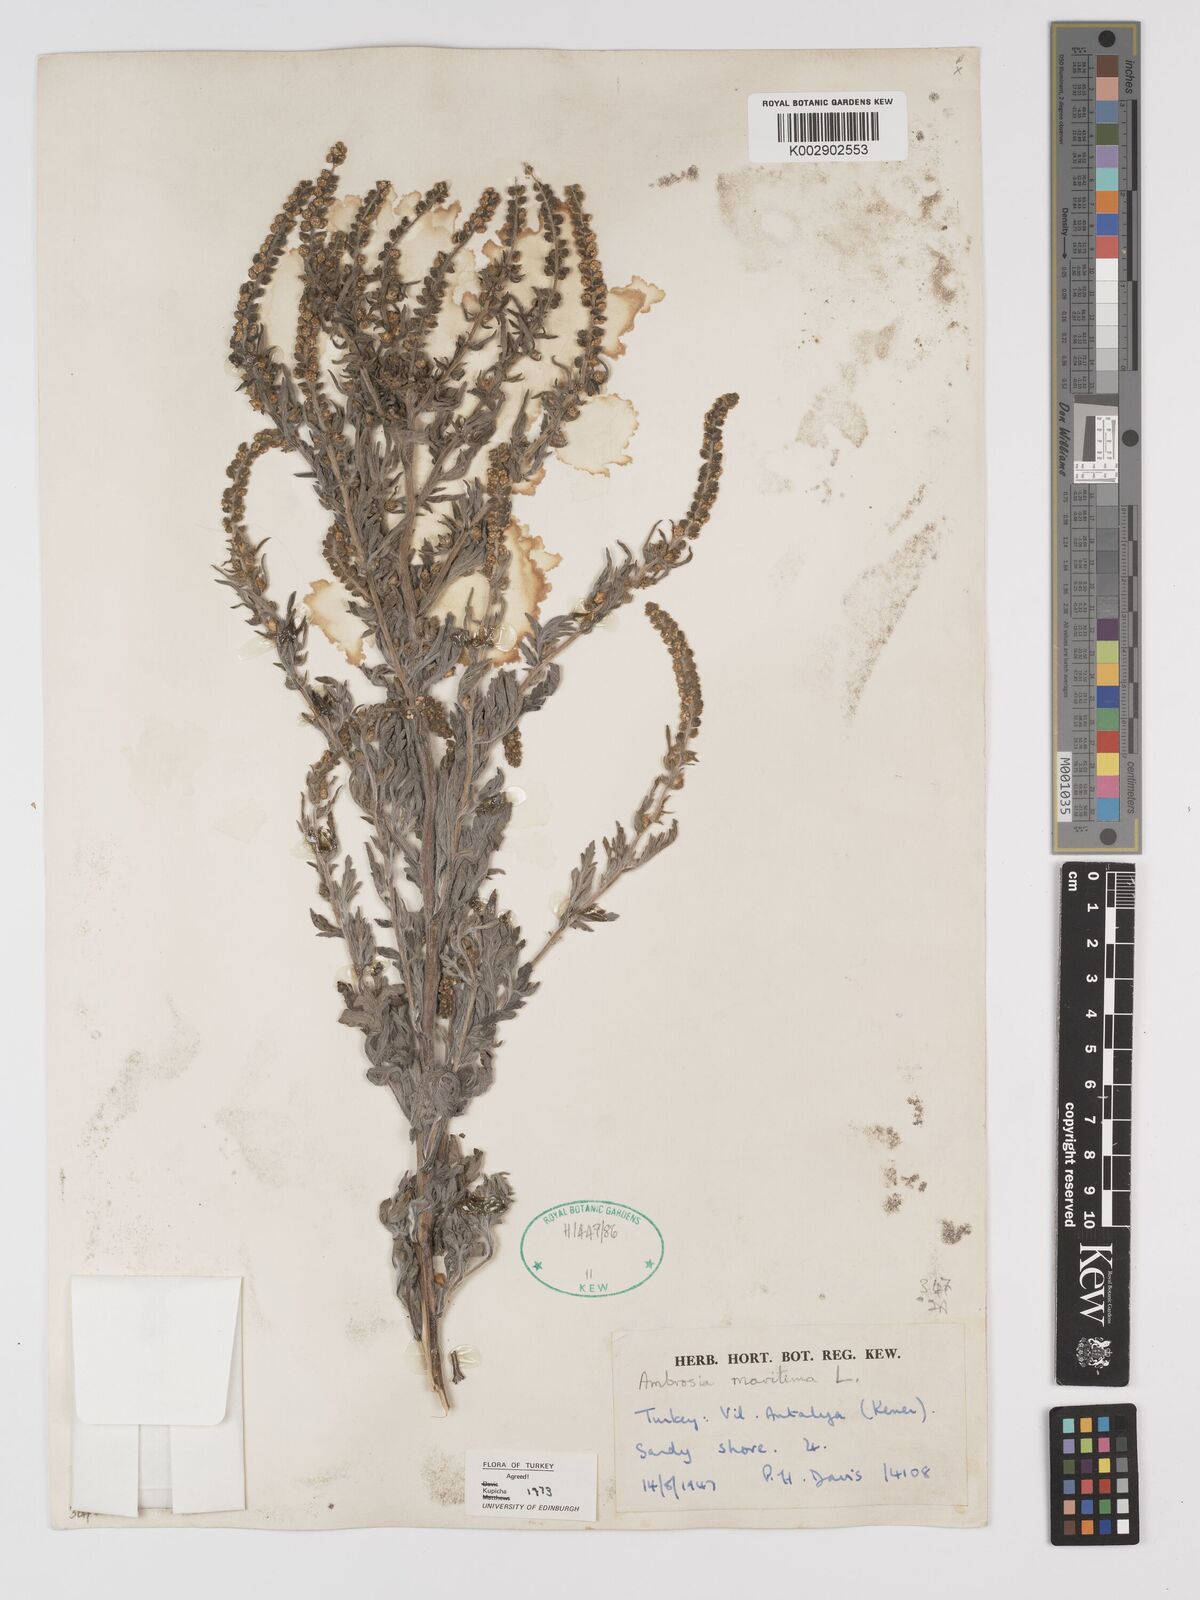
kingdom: Plantae
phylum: Tracheophyta
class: Magnoliopsida
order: Asterales
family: Asteraceae
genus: Ambrosia
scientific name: Ambrosia maritima
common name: Sea ambrosia
